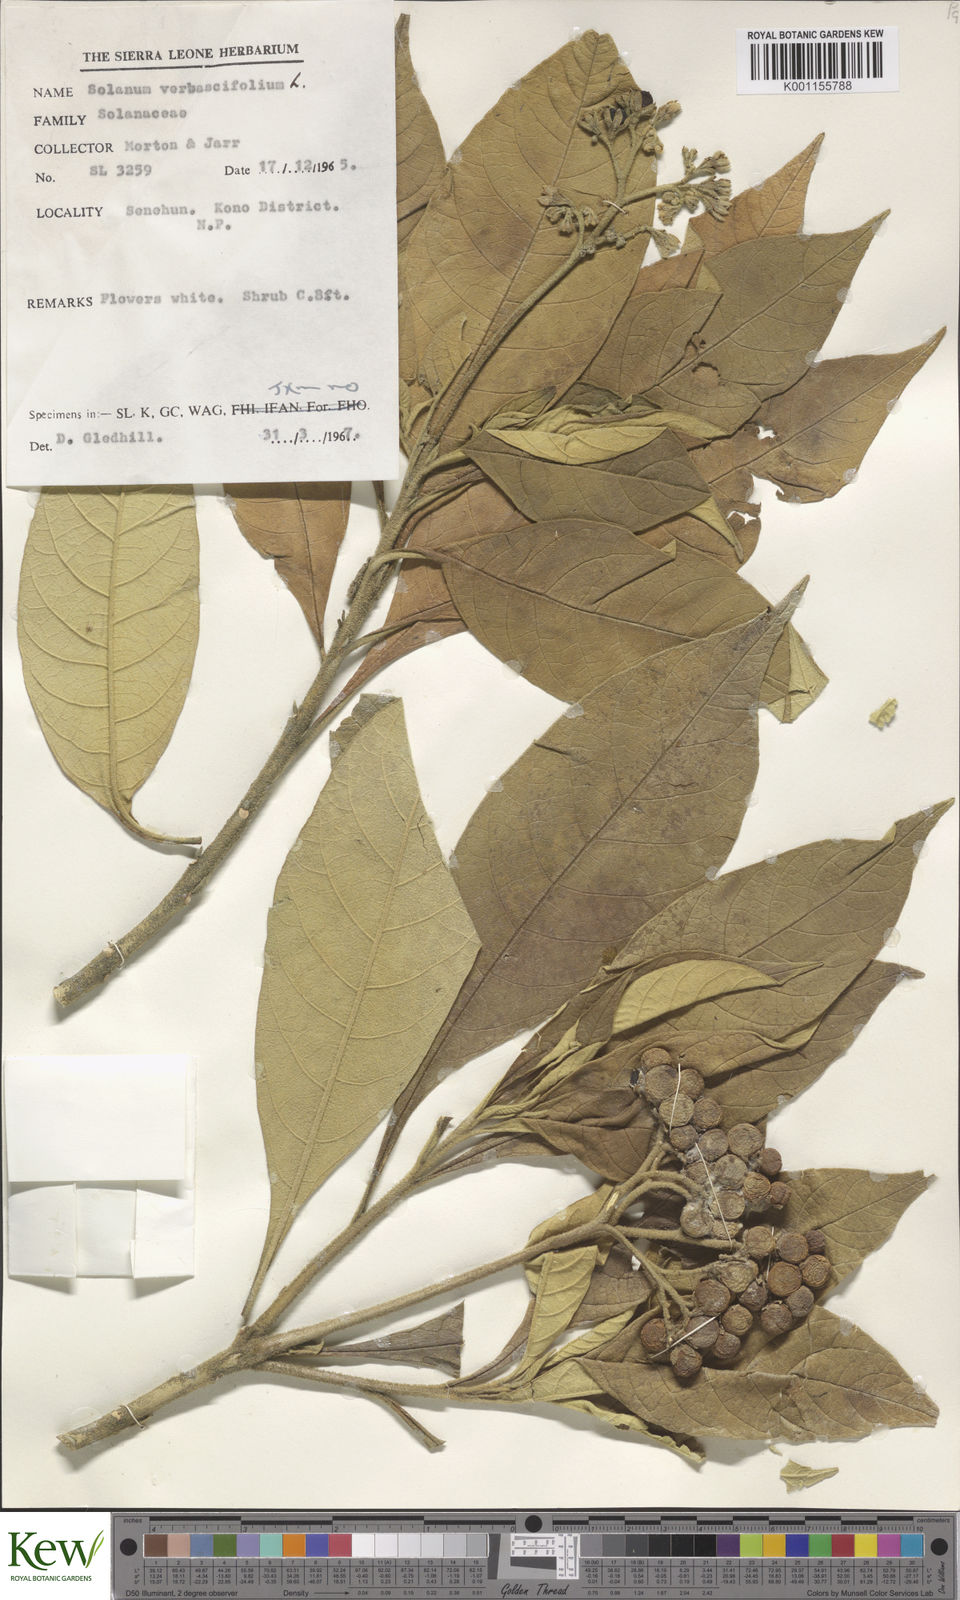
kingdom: Plantae
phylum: Tracheophyta
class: Magnoliopsida
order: Solanales
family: Solanaceae
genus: Solanum
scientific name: Solanum rugosum
